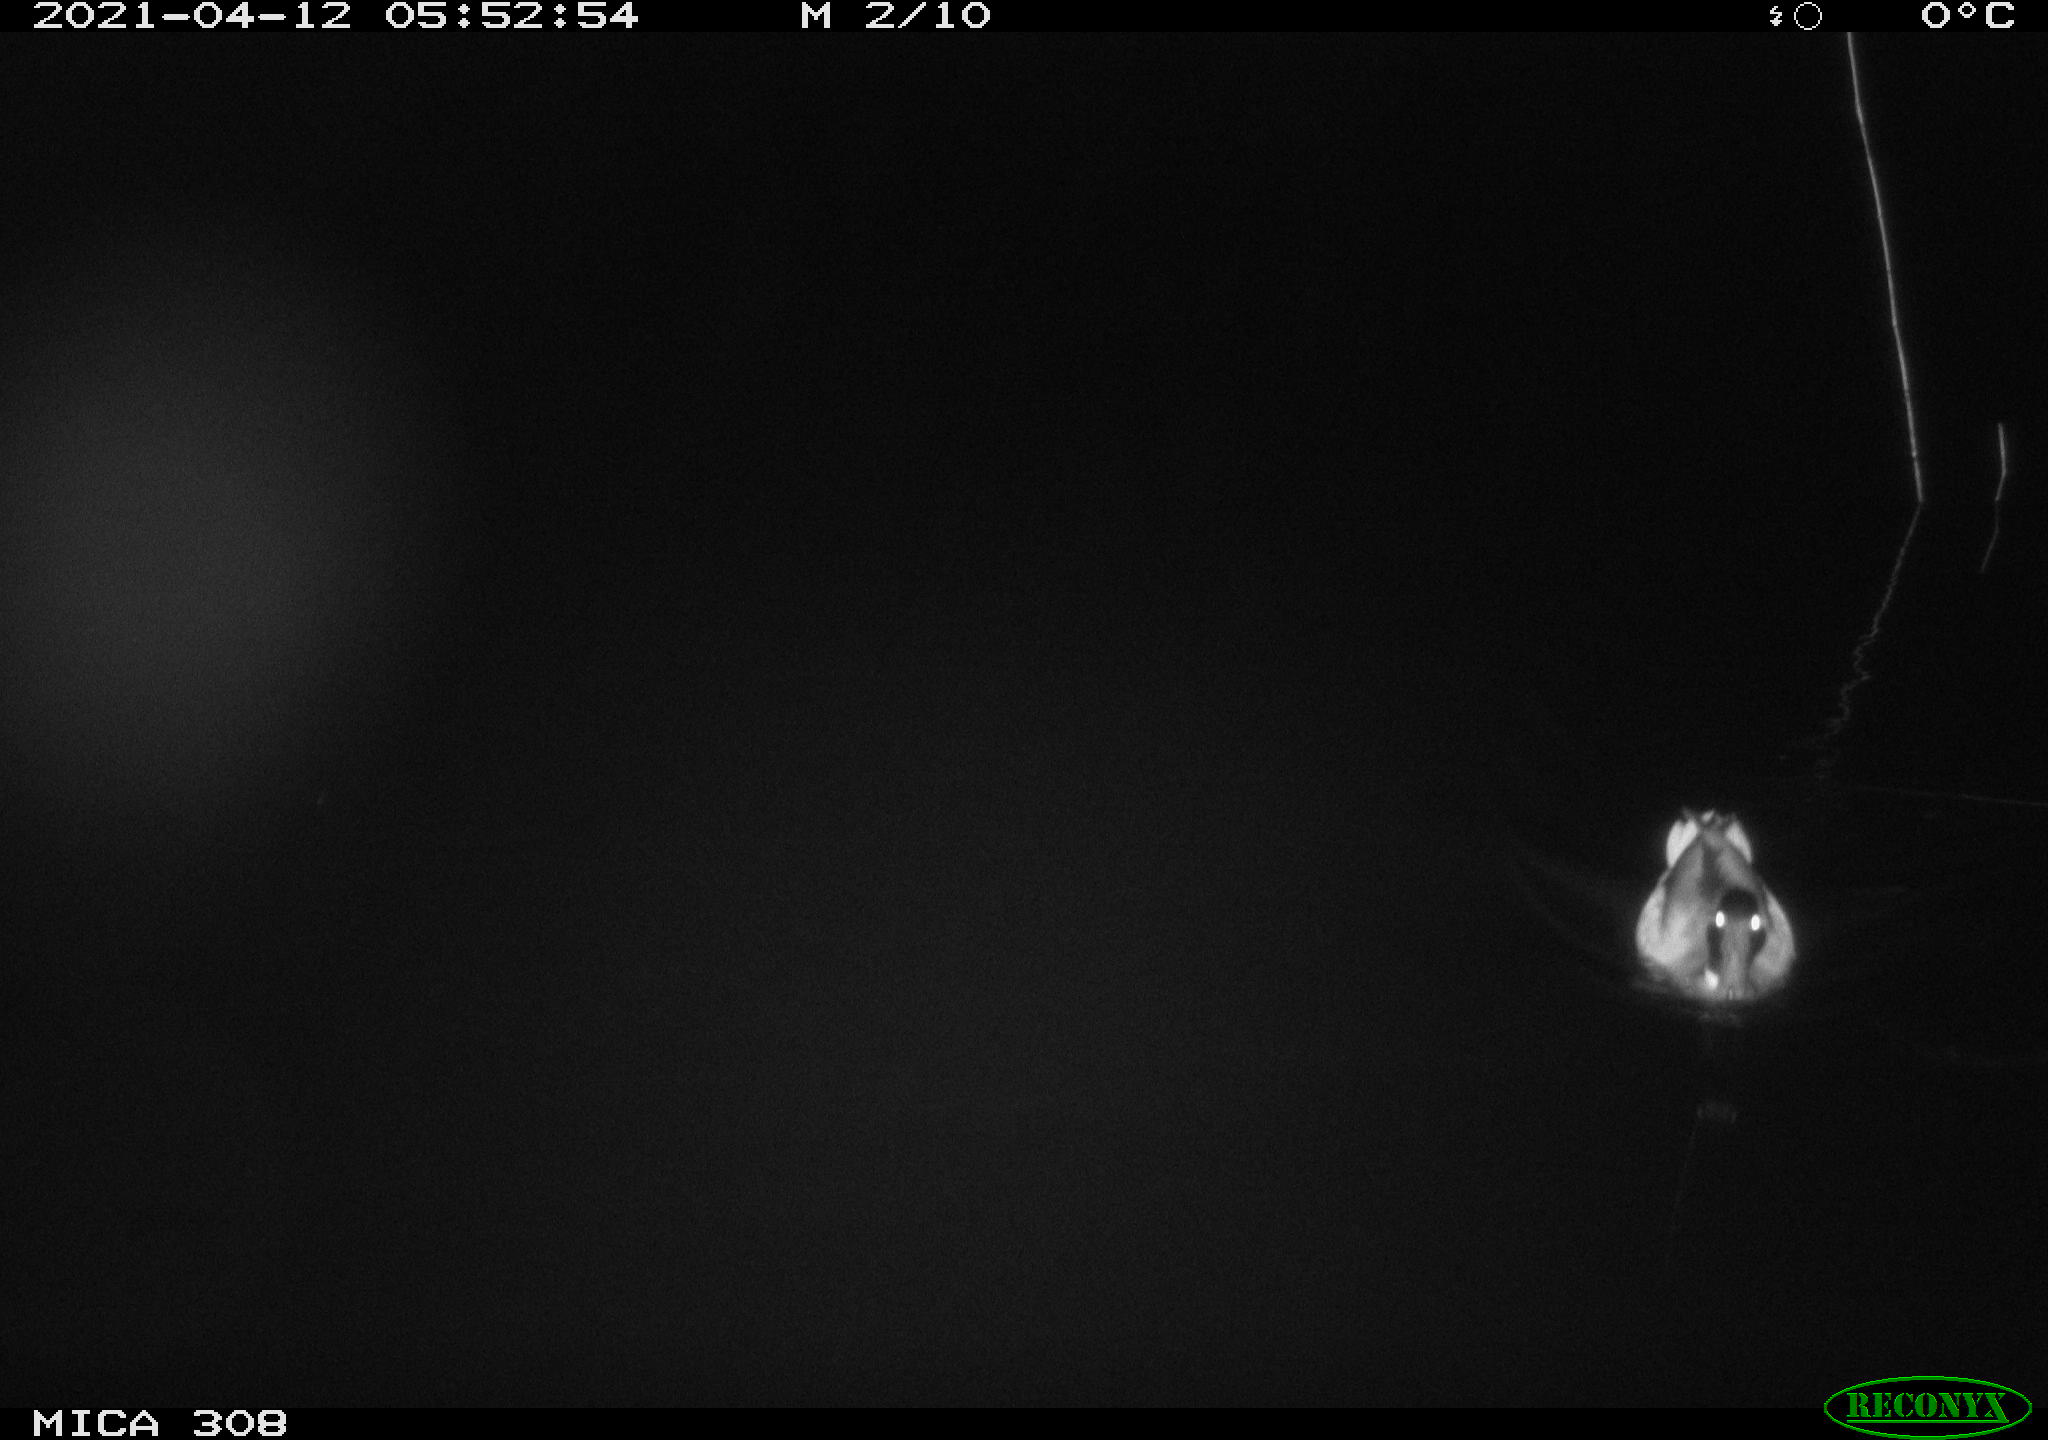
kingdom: Animalia
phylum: Chordata
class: Aves
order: Anseriformes
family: Anatidae
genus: Anas
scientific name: Anas platyrhynchos
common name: Mallard
